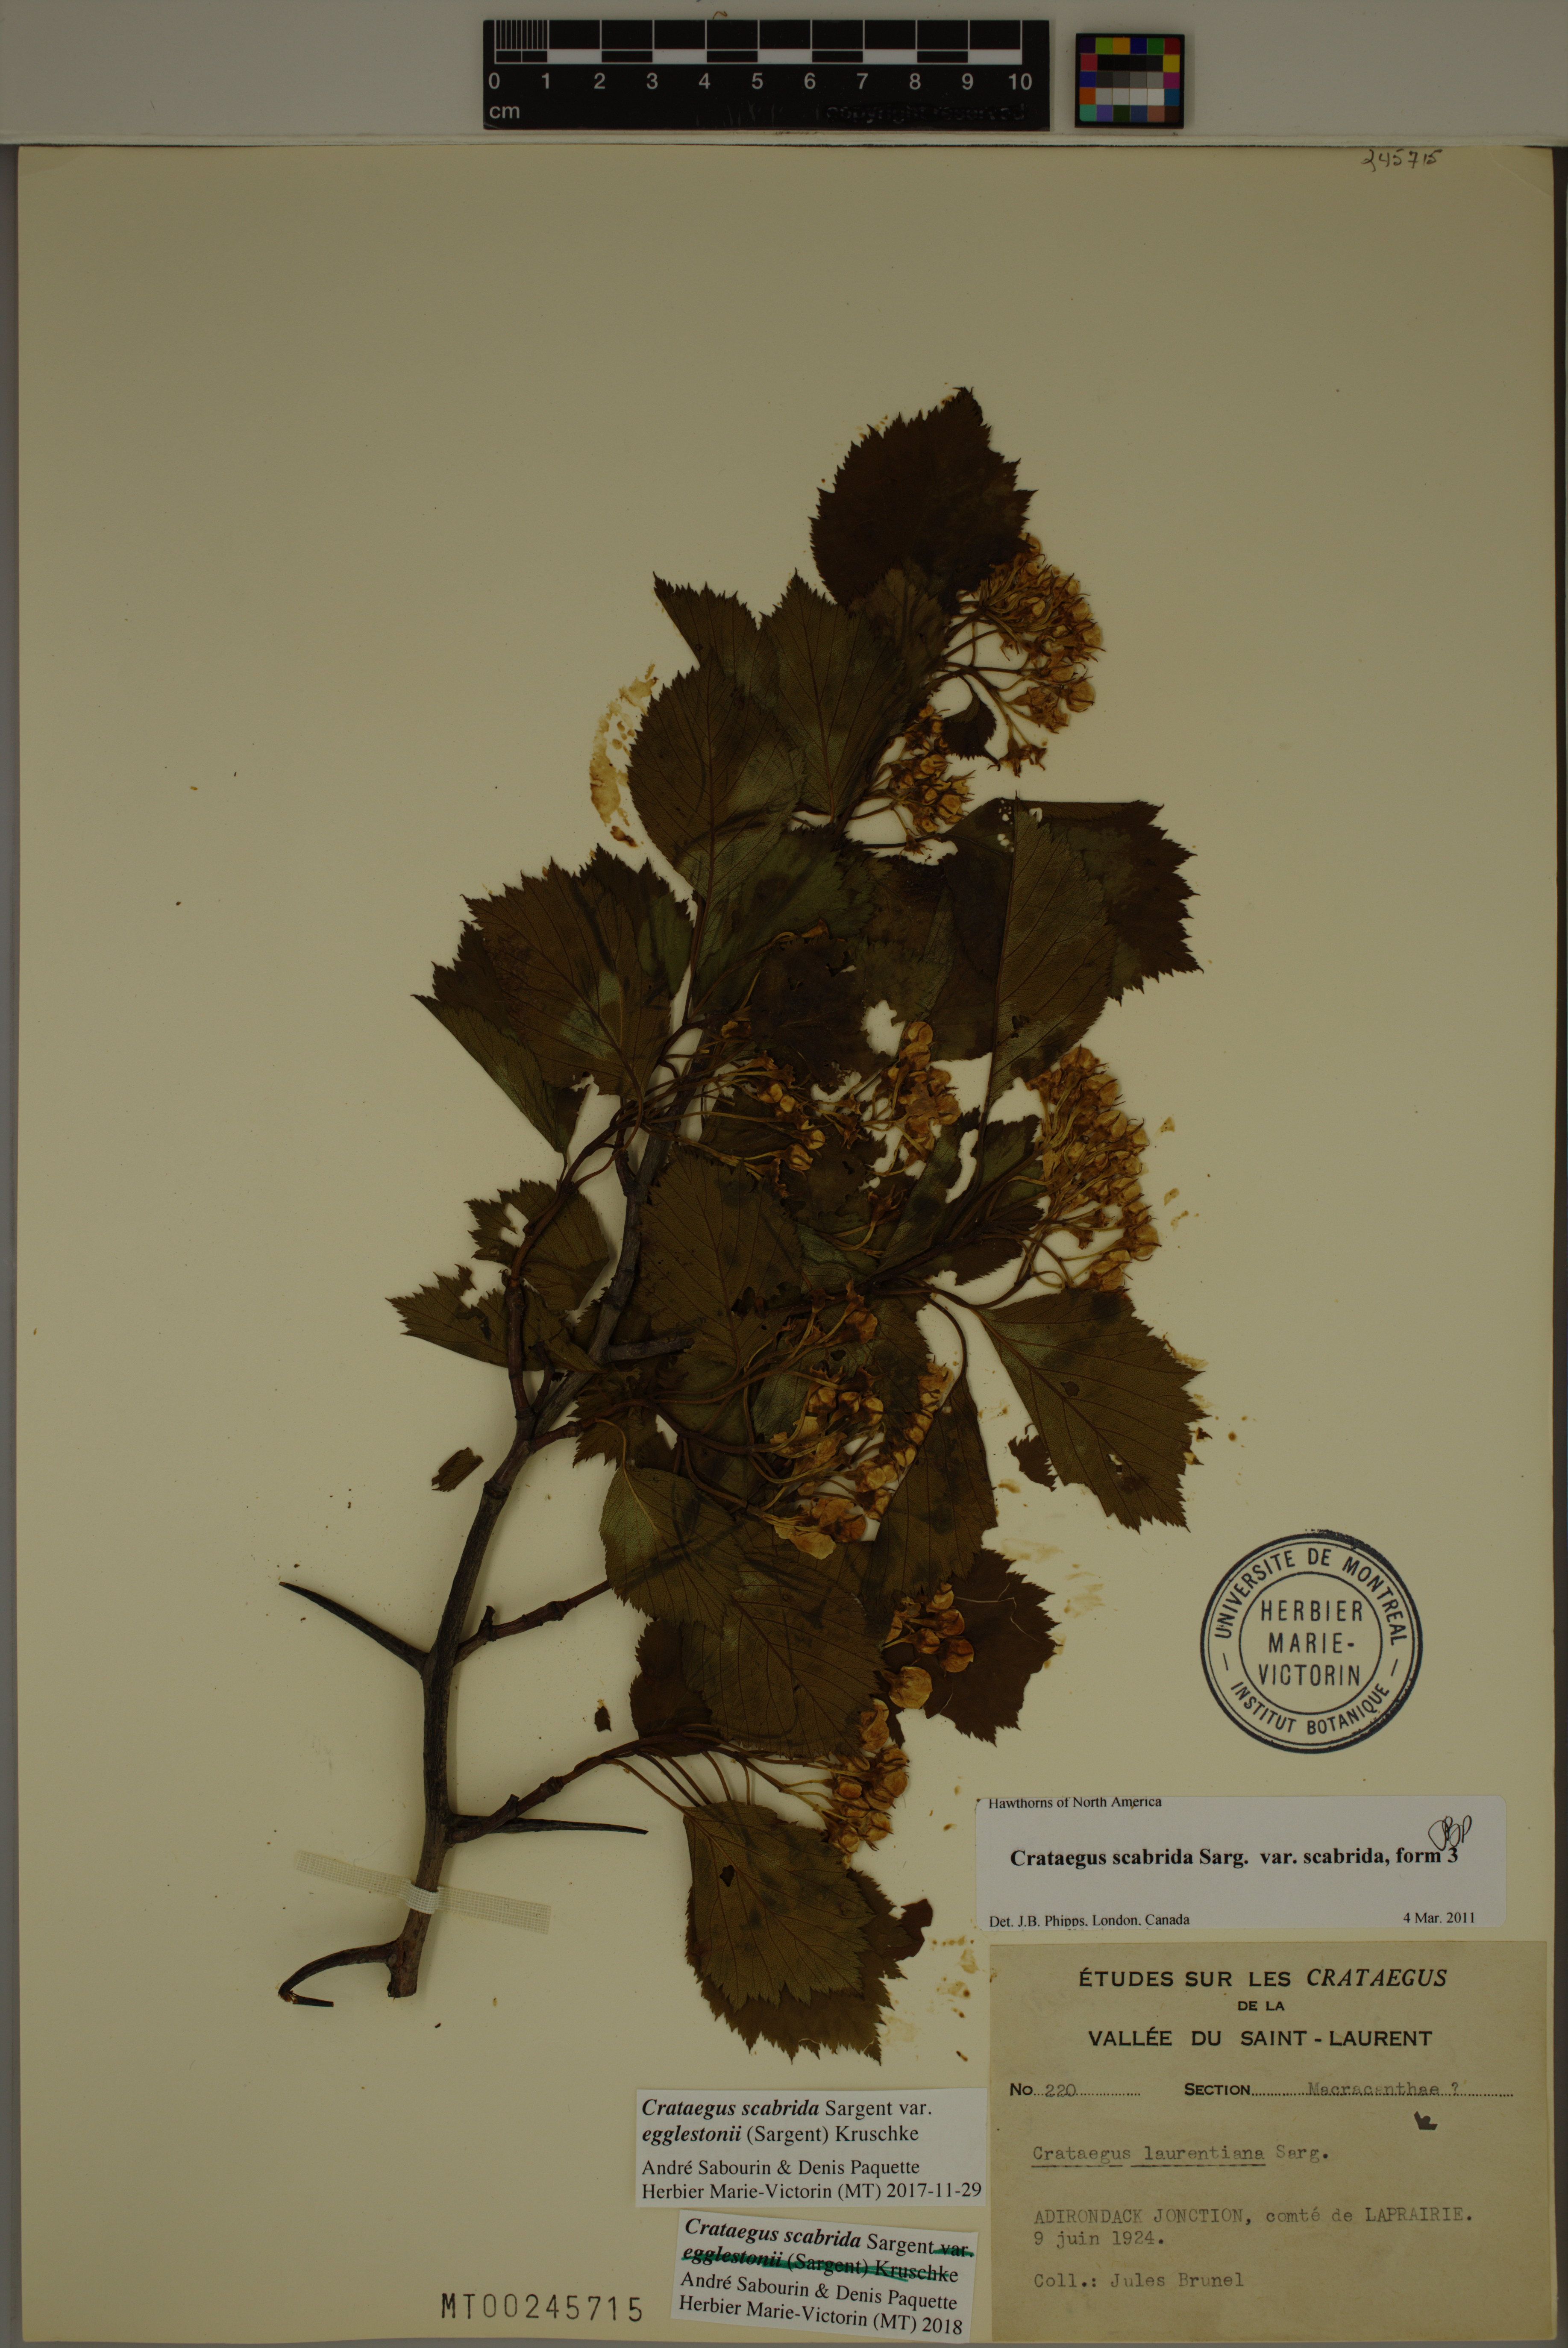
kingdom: Plantae
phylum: Tracheophyta
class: Magnoliopsida
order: Rosales
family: Rosaceae
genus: Crataegus
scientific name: Crataegus scabrida
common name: Rough hawthorn
